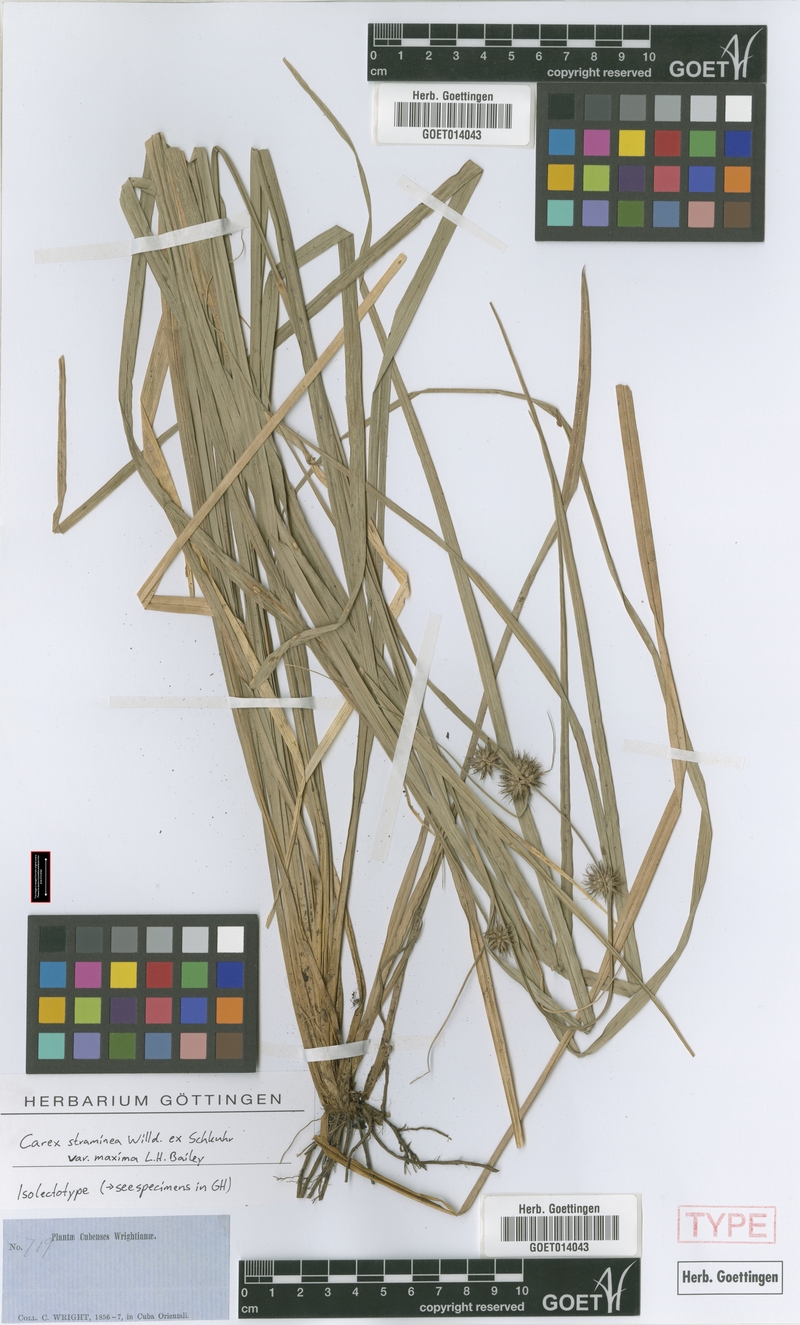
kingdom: Plantae
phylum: Tracheophyta
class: Liliopsida
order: Poales
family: Cyperaceae
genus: Carex
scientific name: Carex tetrastachya
